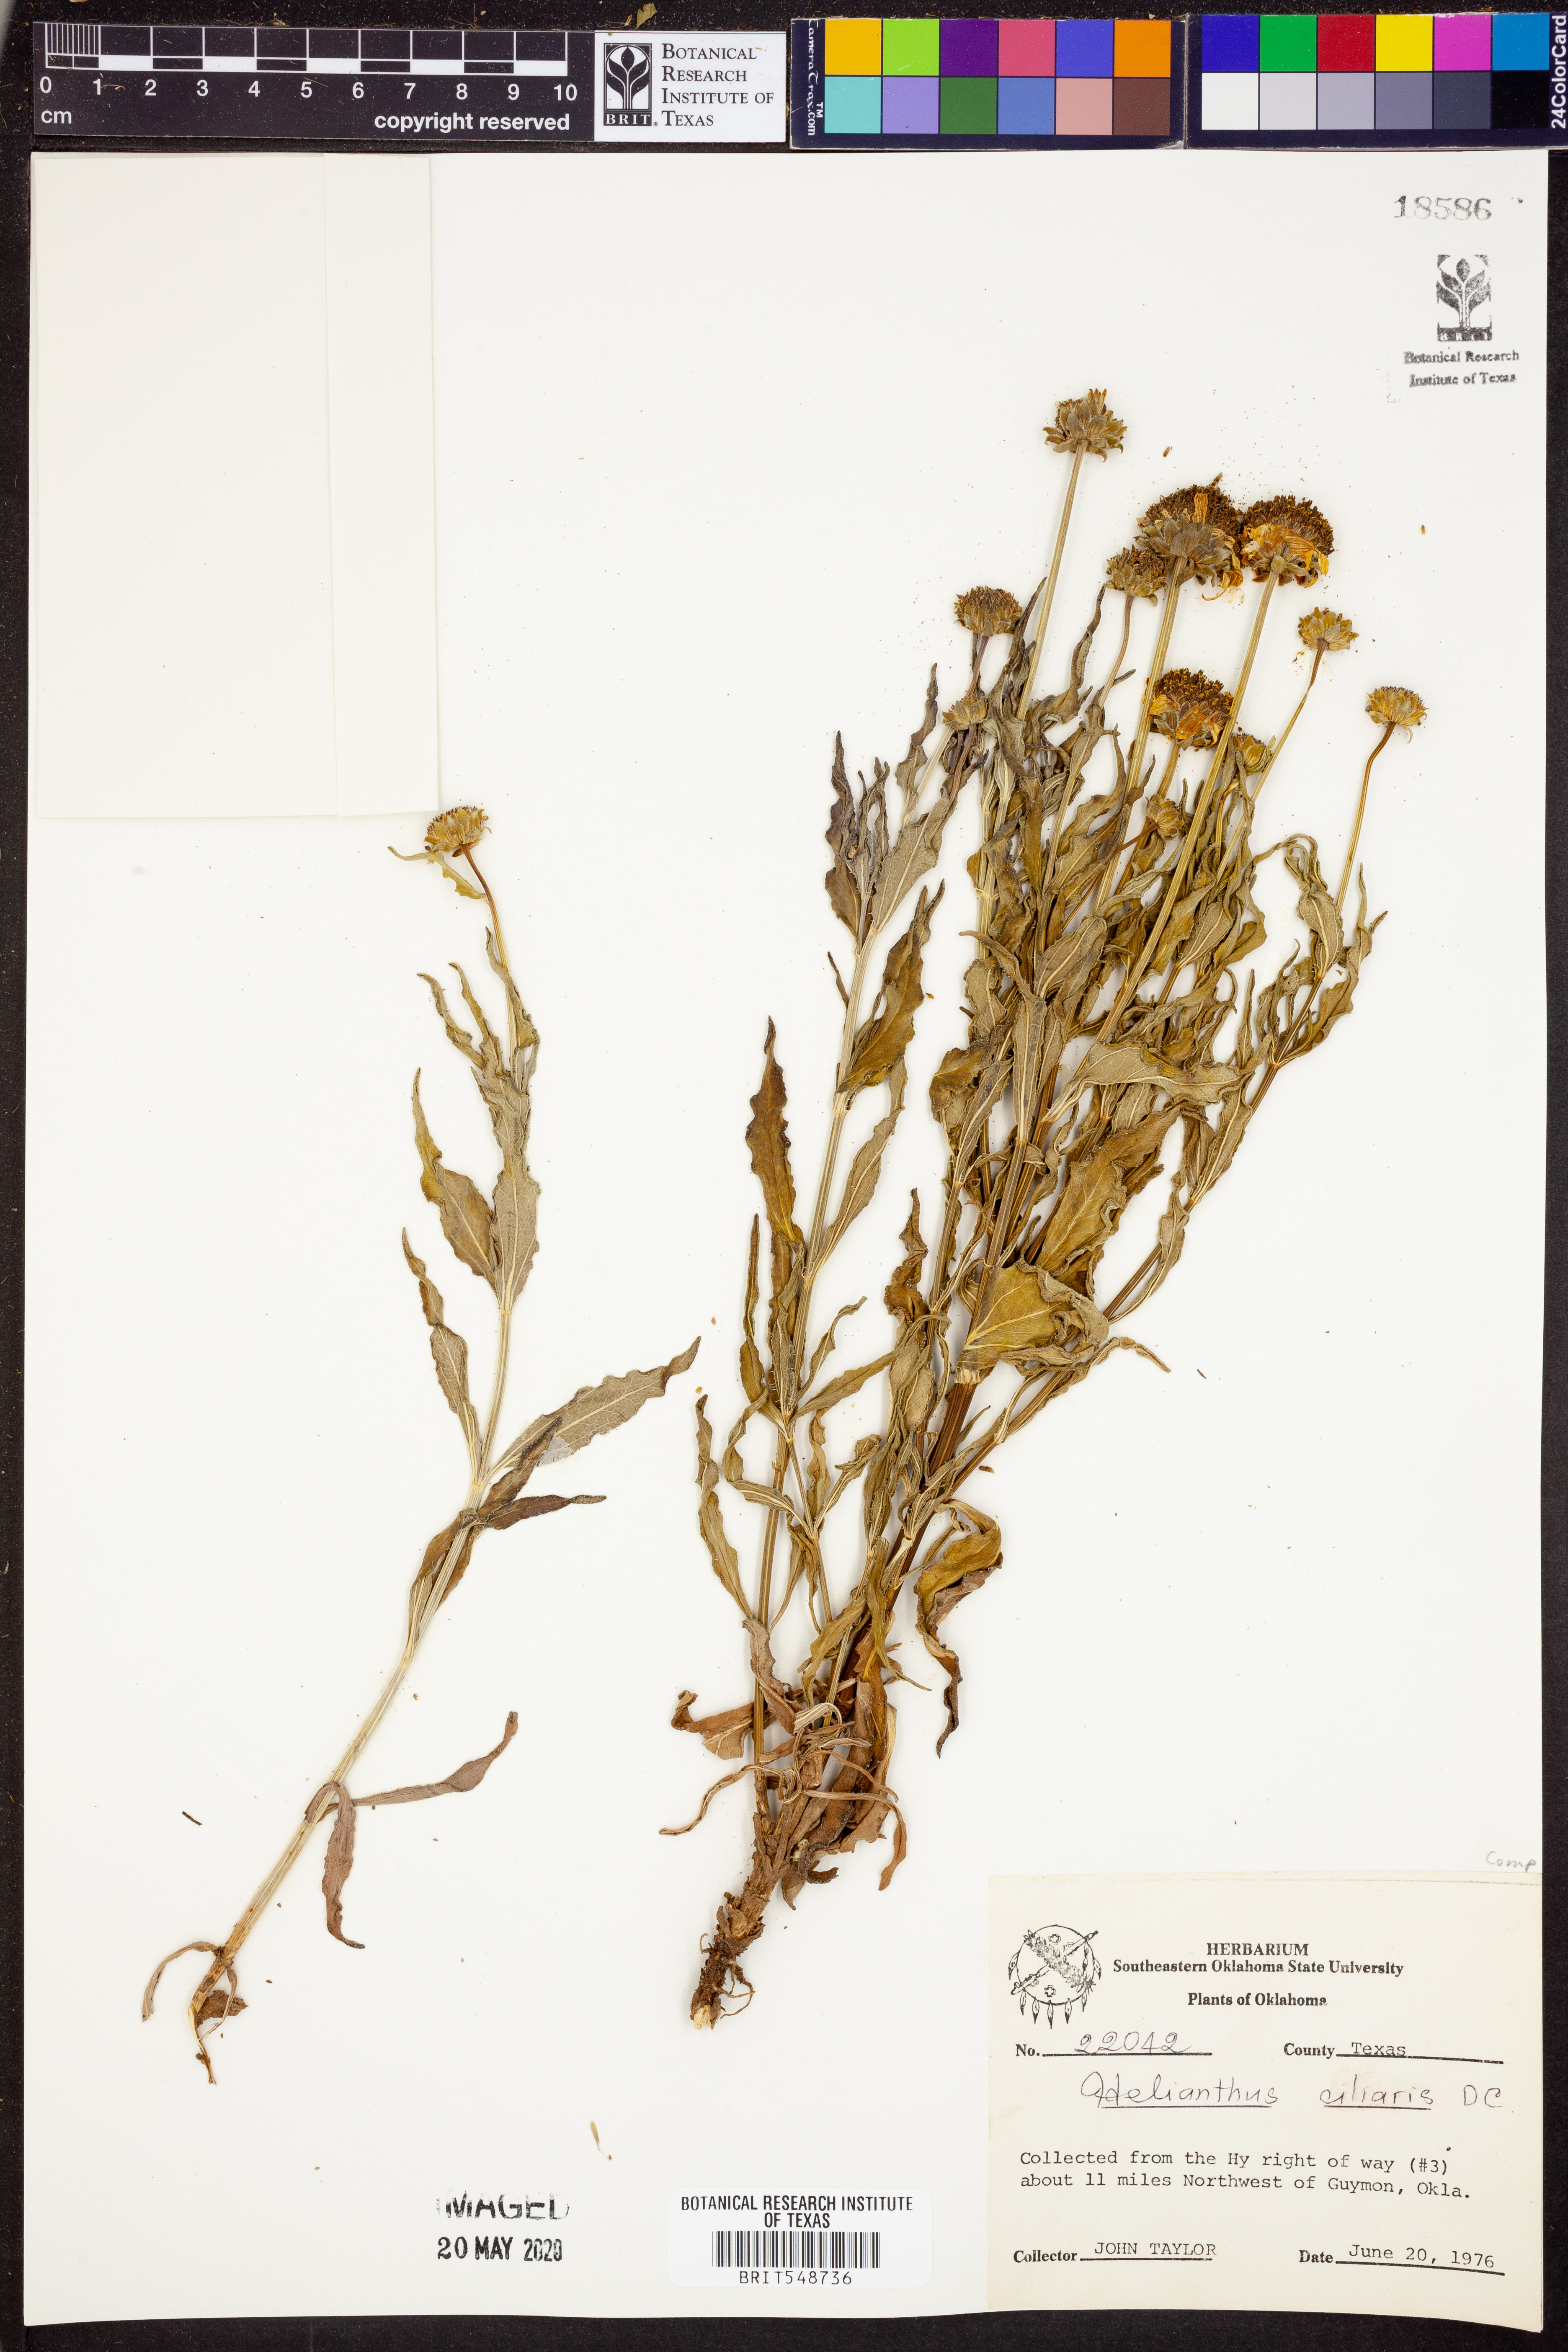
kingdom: Plantae
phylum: Tracheophyta
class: Magnoliopsida
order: Asterales
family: Asteraceae
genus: Helianthus
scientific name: Helianthus ciliaris
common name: Texas blueweed
